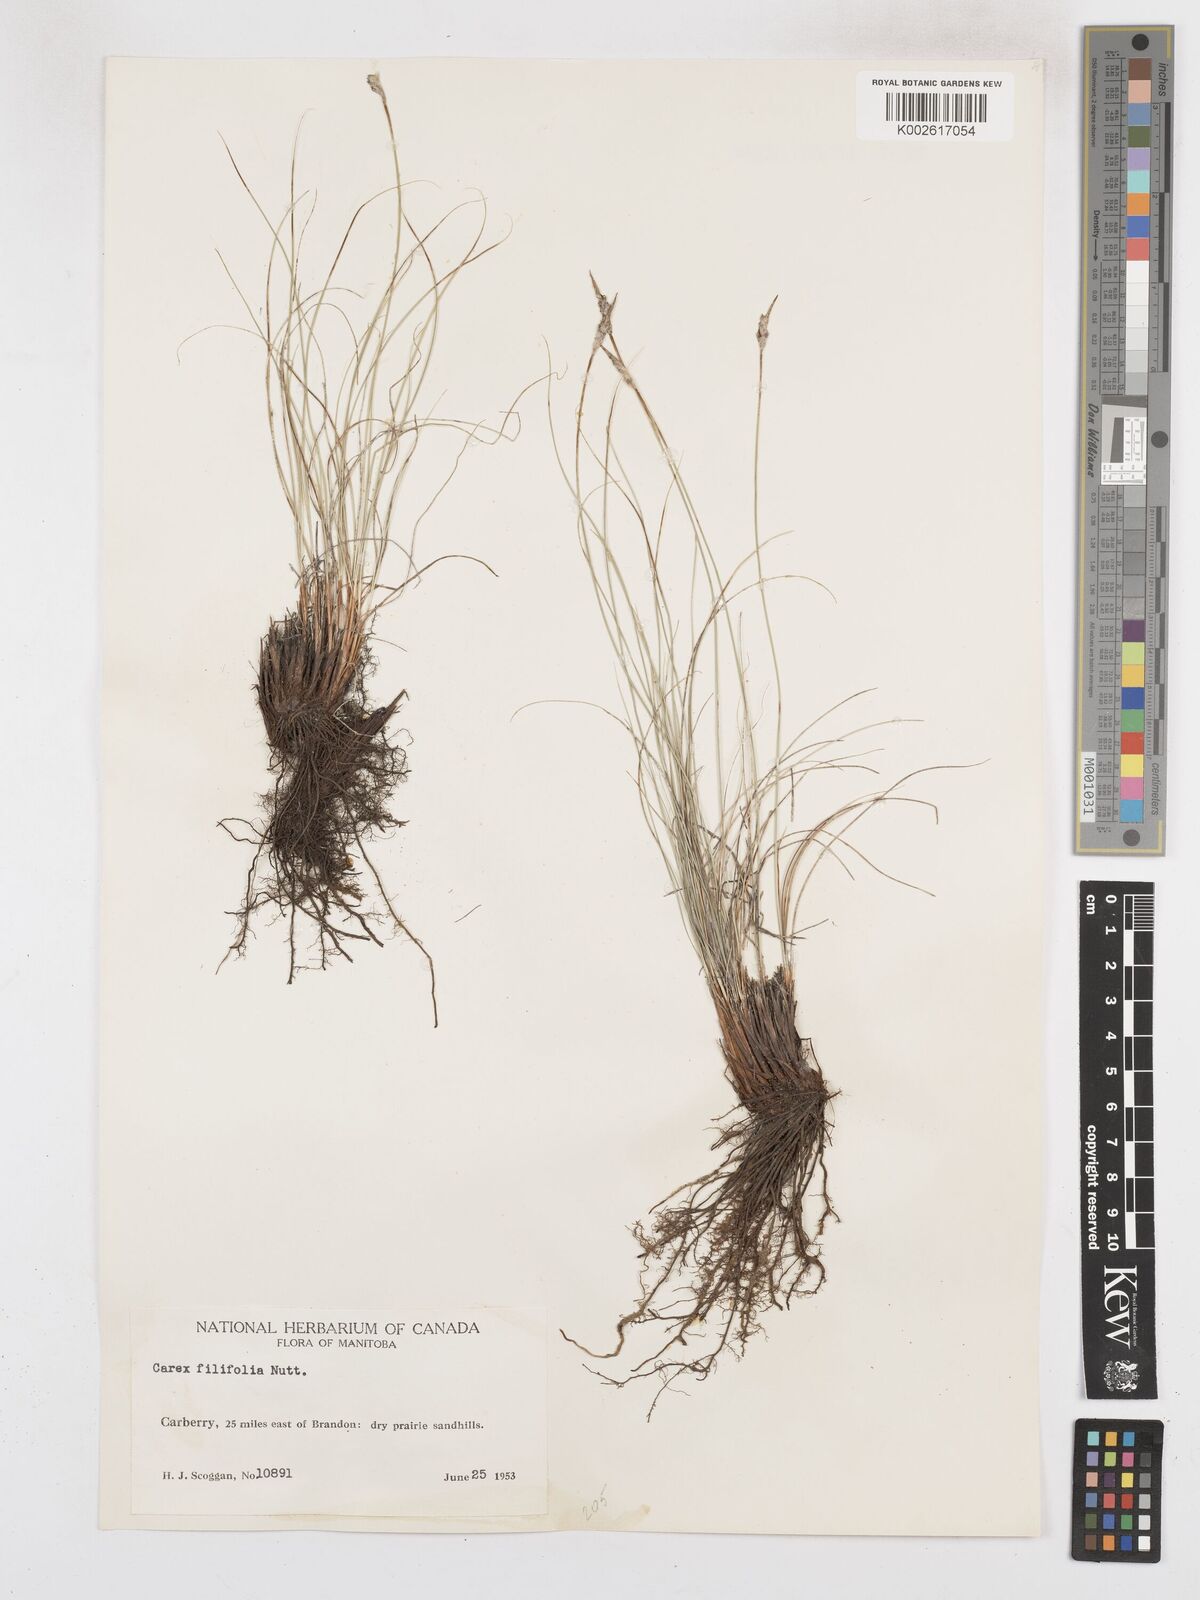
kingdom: Plantae
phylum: Tracheophyta
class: Liliopsida
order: Poales
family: Cyperaceae
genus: Carex
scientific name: Carex filifolia
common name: Threadleaf sedge
